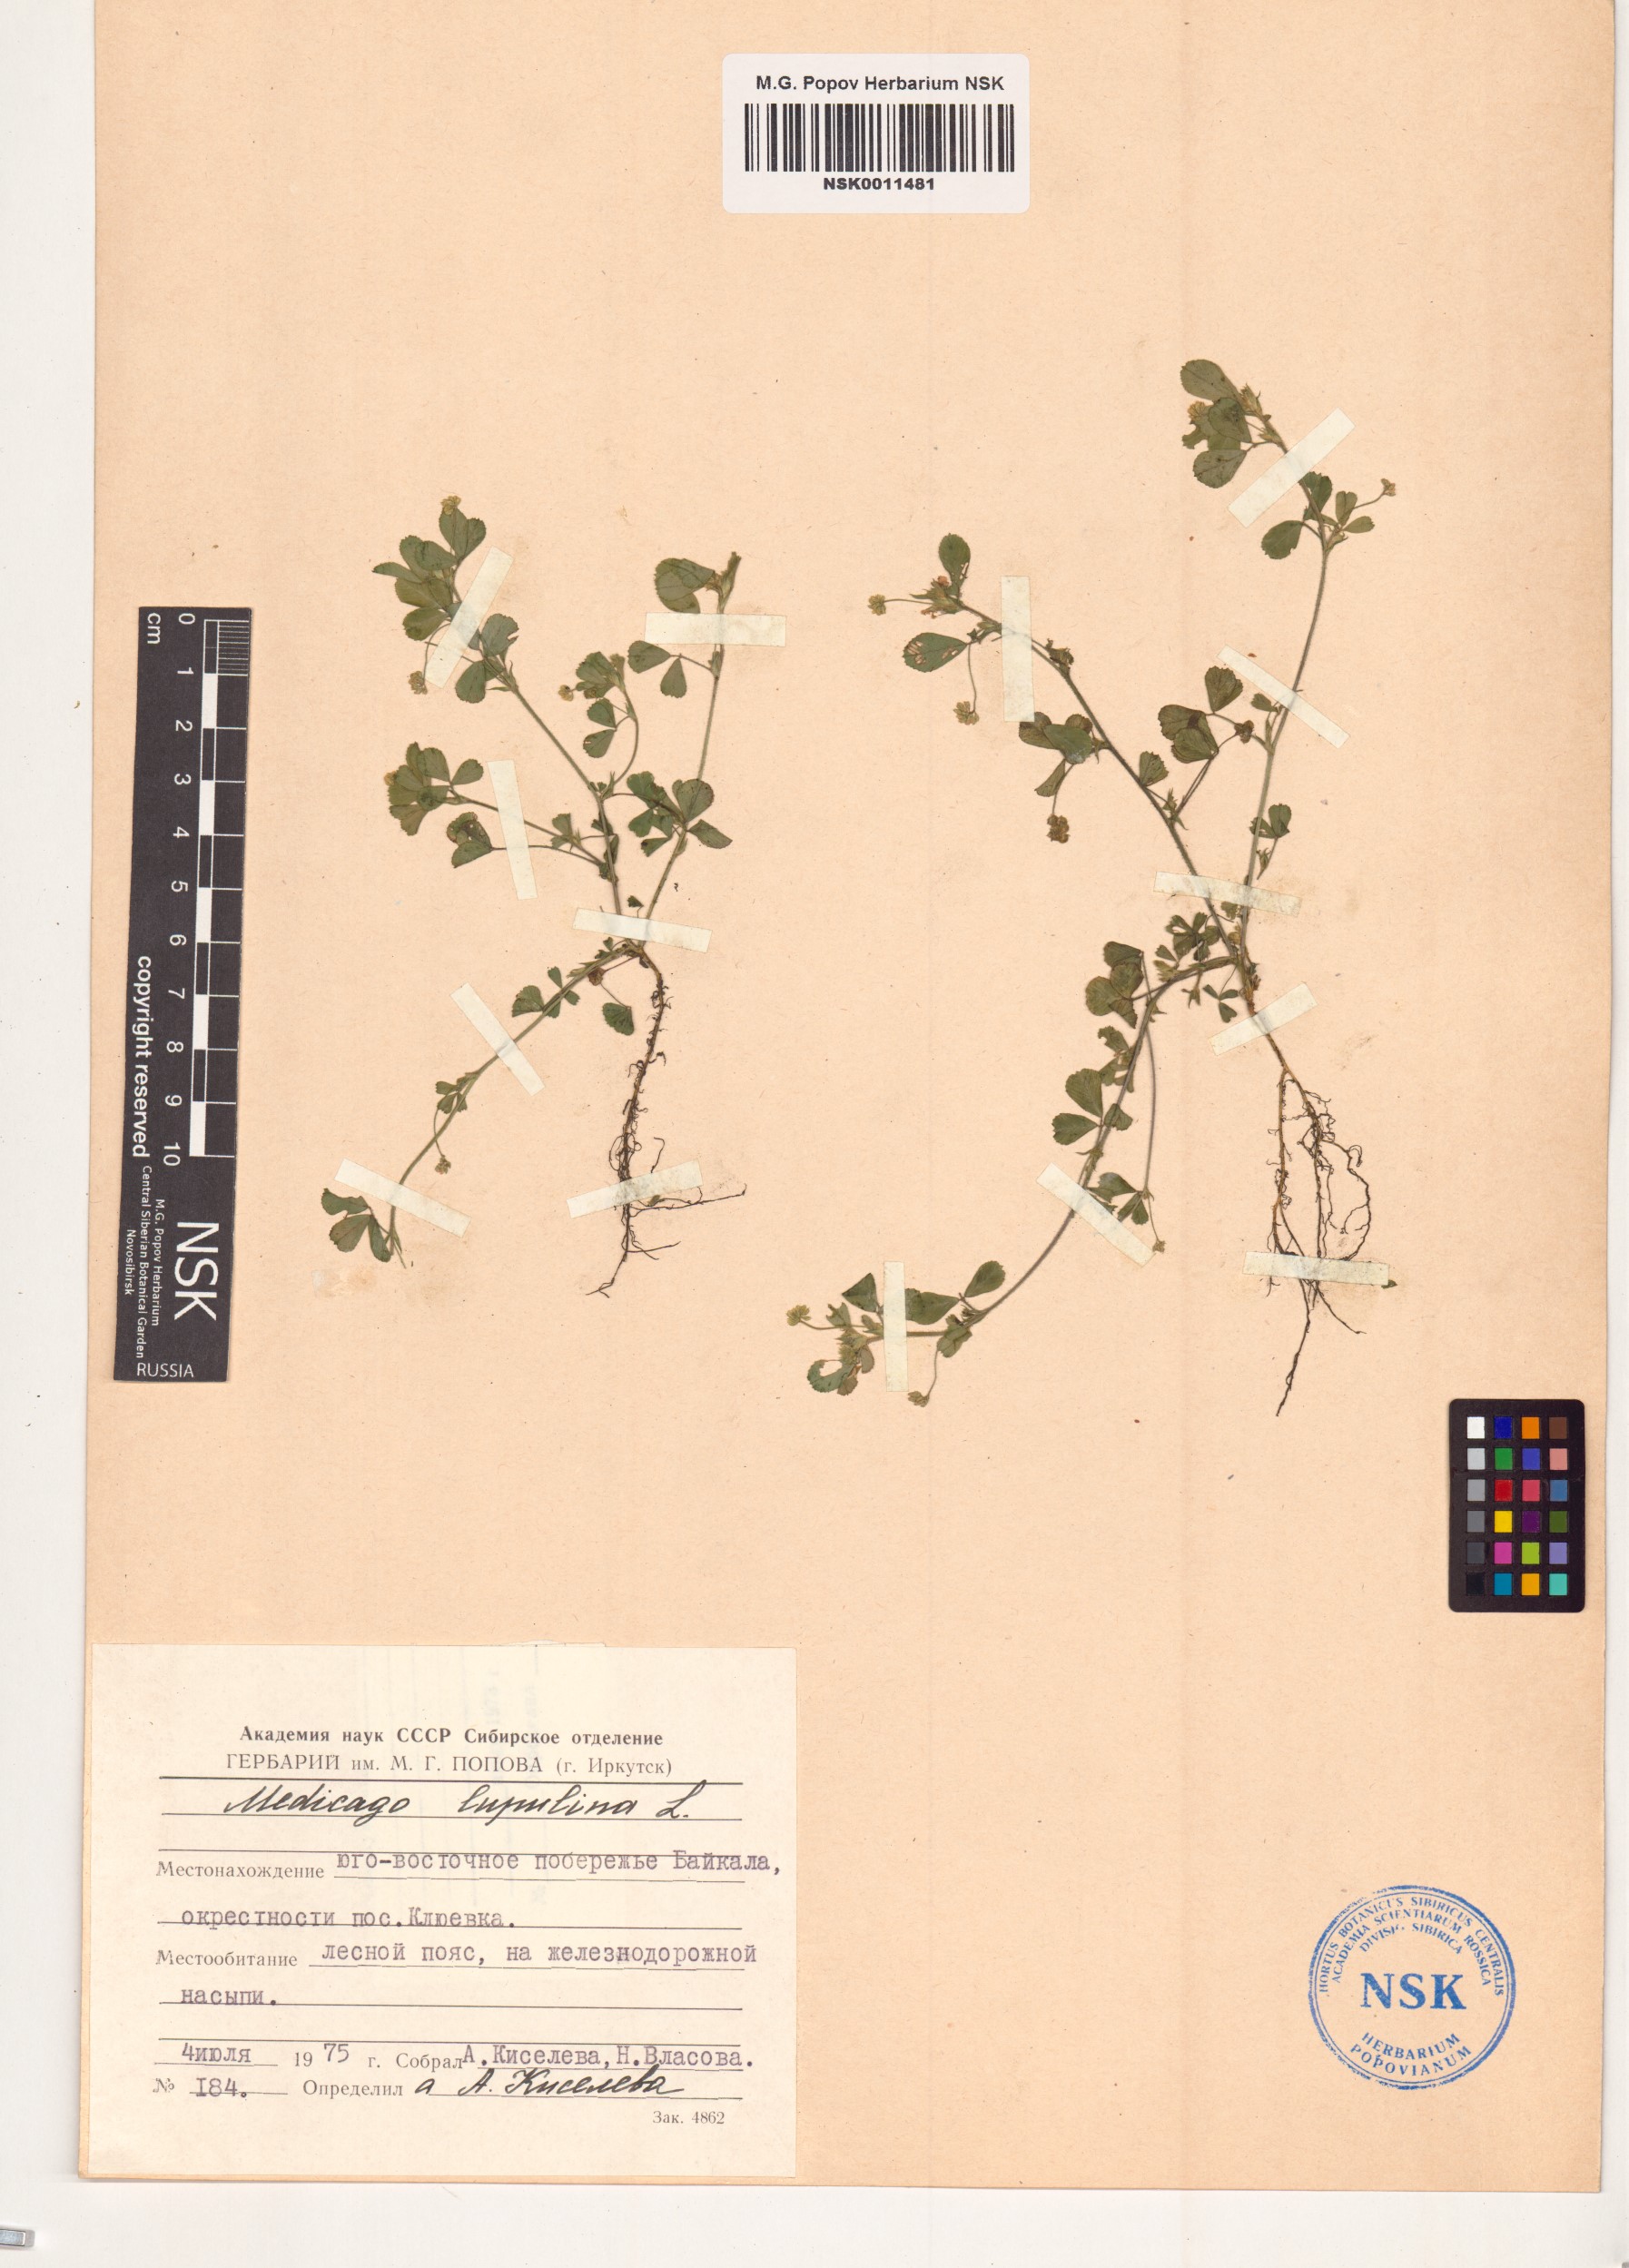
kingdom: Plantae
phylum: Tracheophyta
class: Magnoliopsida
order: Fabales
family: Fabaceae
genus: Medicago
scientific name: Medicago lupulina
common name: Black medick
